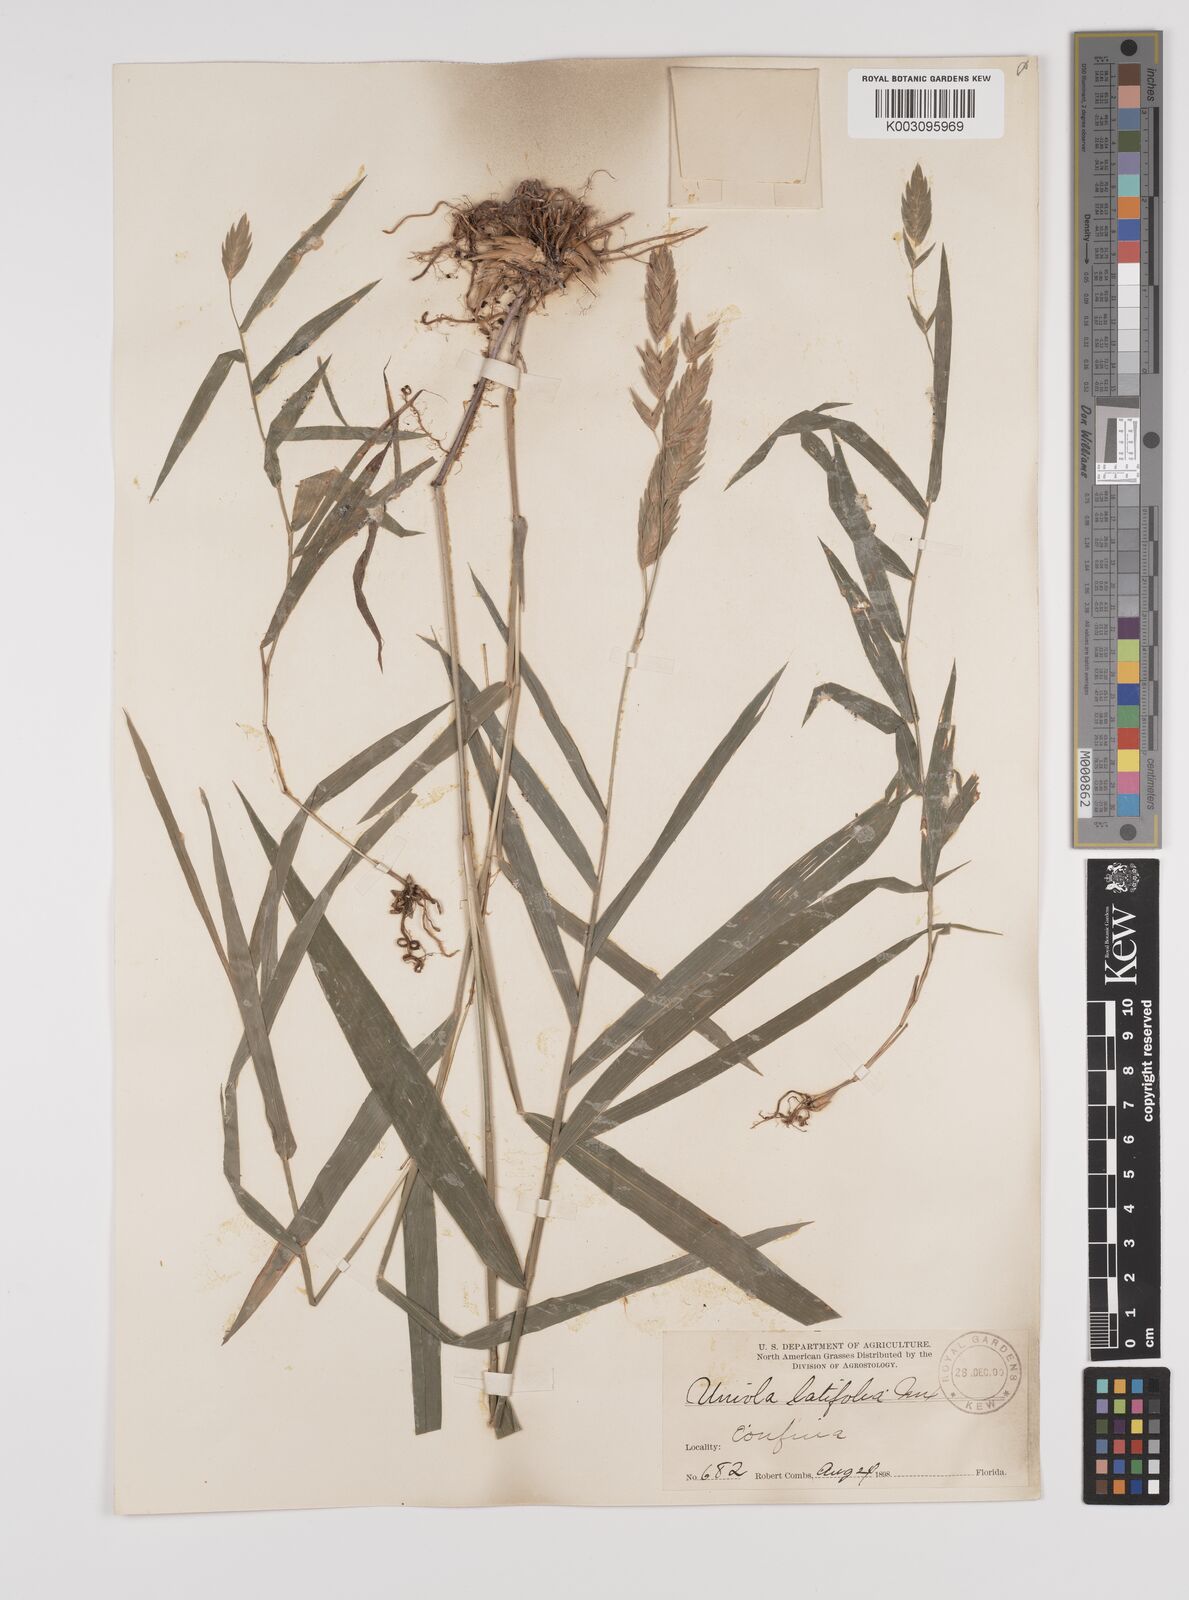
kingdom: Plantae
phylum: Tracheophyta
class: Liliopsida
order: Poales
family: Poaceae
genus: Chasmanthium
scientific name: Chasmanthium latifolium
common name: Broad-leaved chasmanthium
